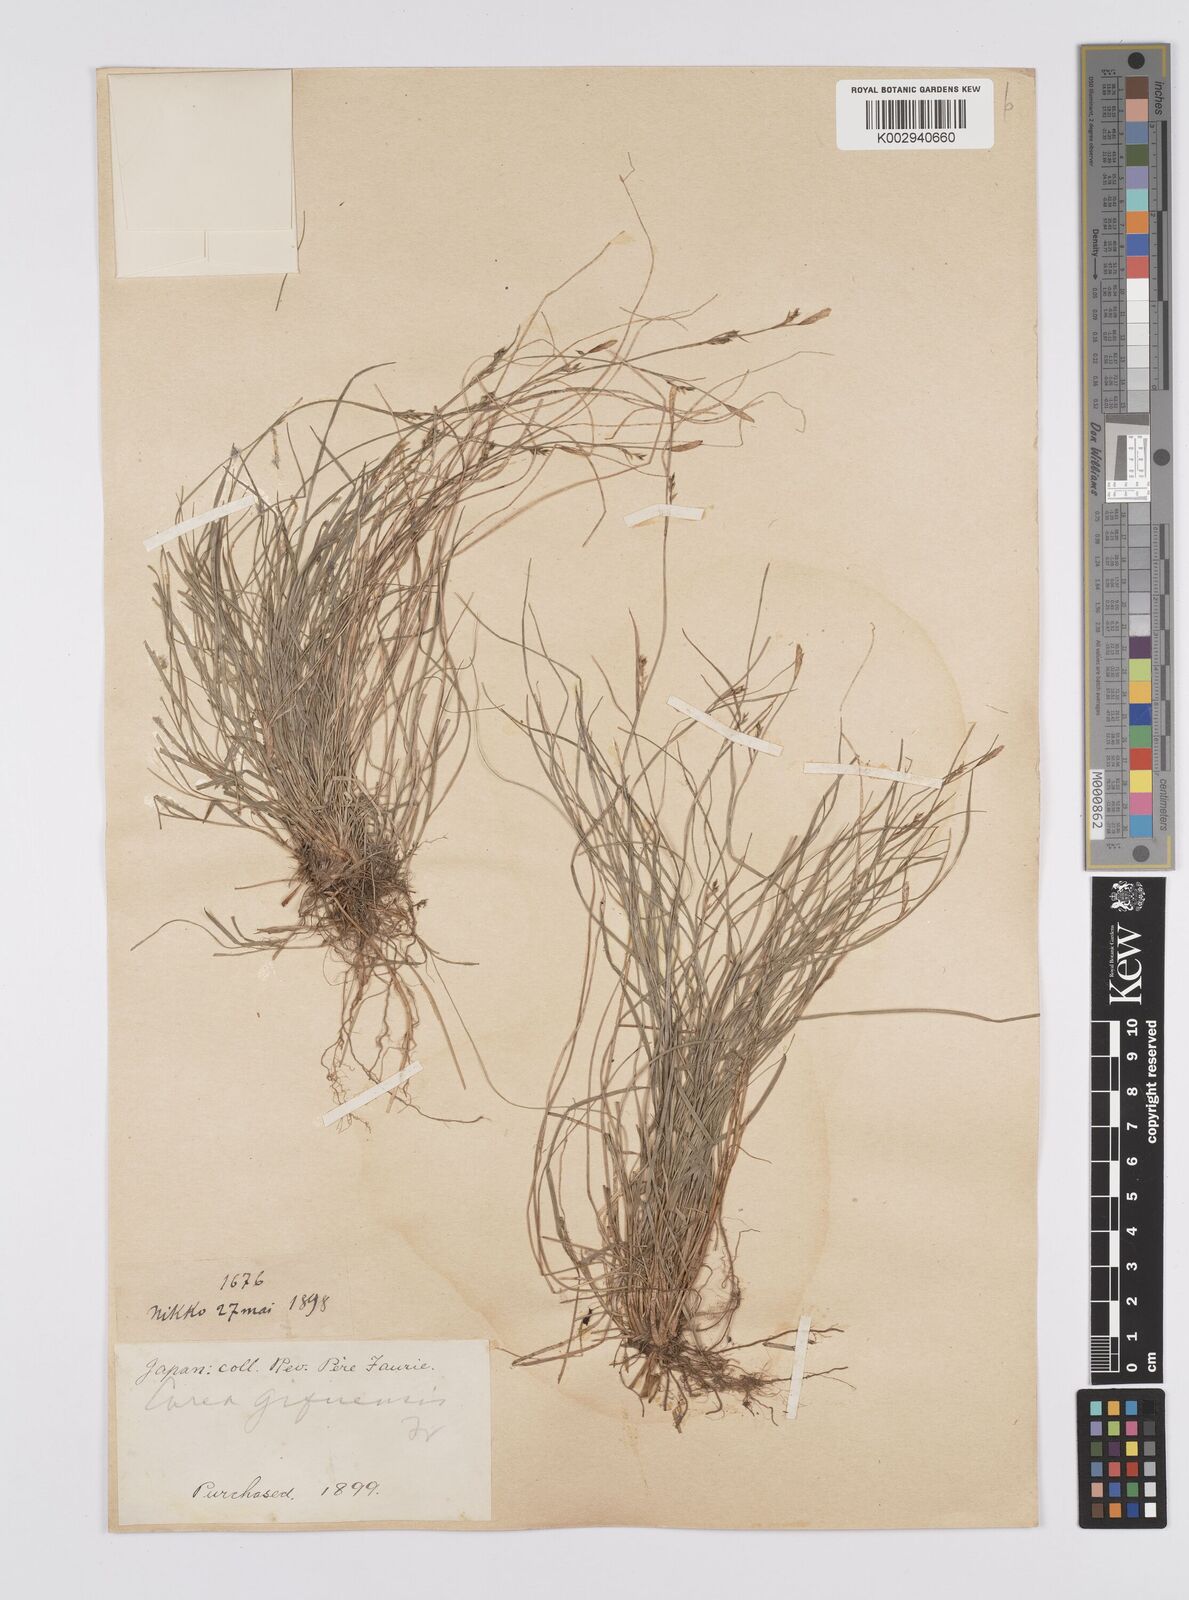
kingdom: Plantae
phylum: Tracheophyta
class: Liliopsida
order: Poales
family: Cyperaceae
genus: Carex
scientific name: Carex gifuensis
